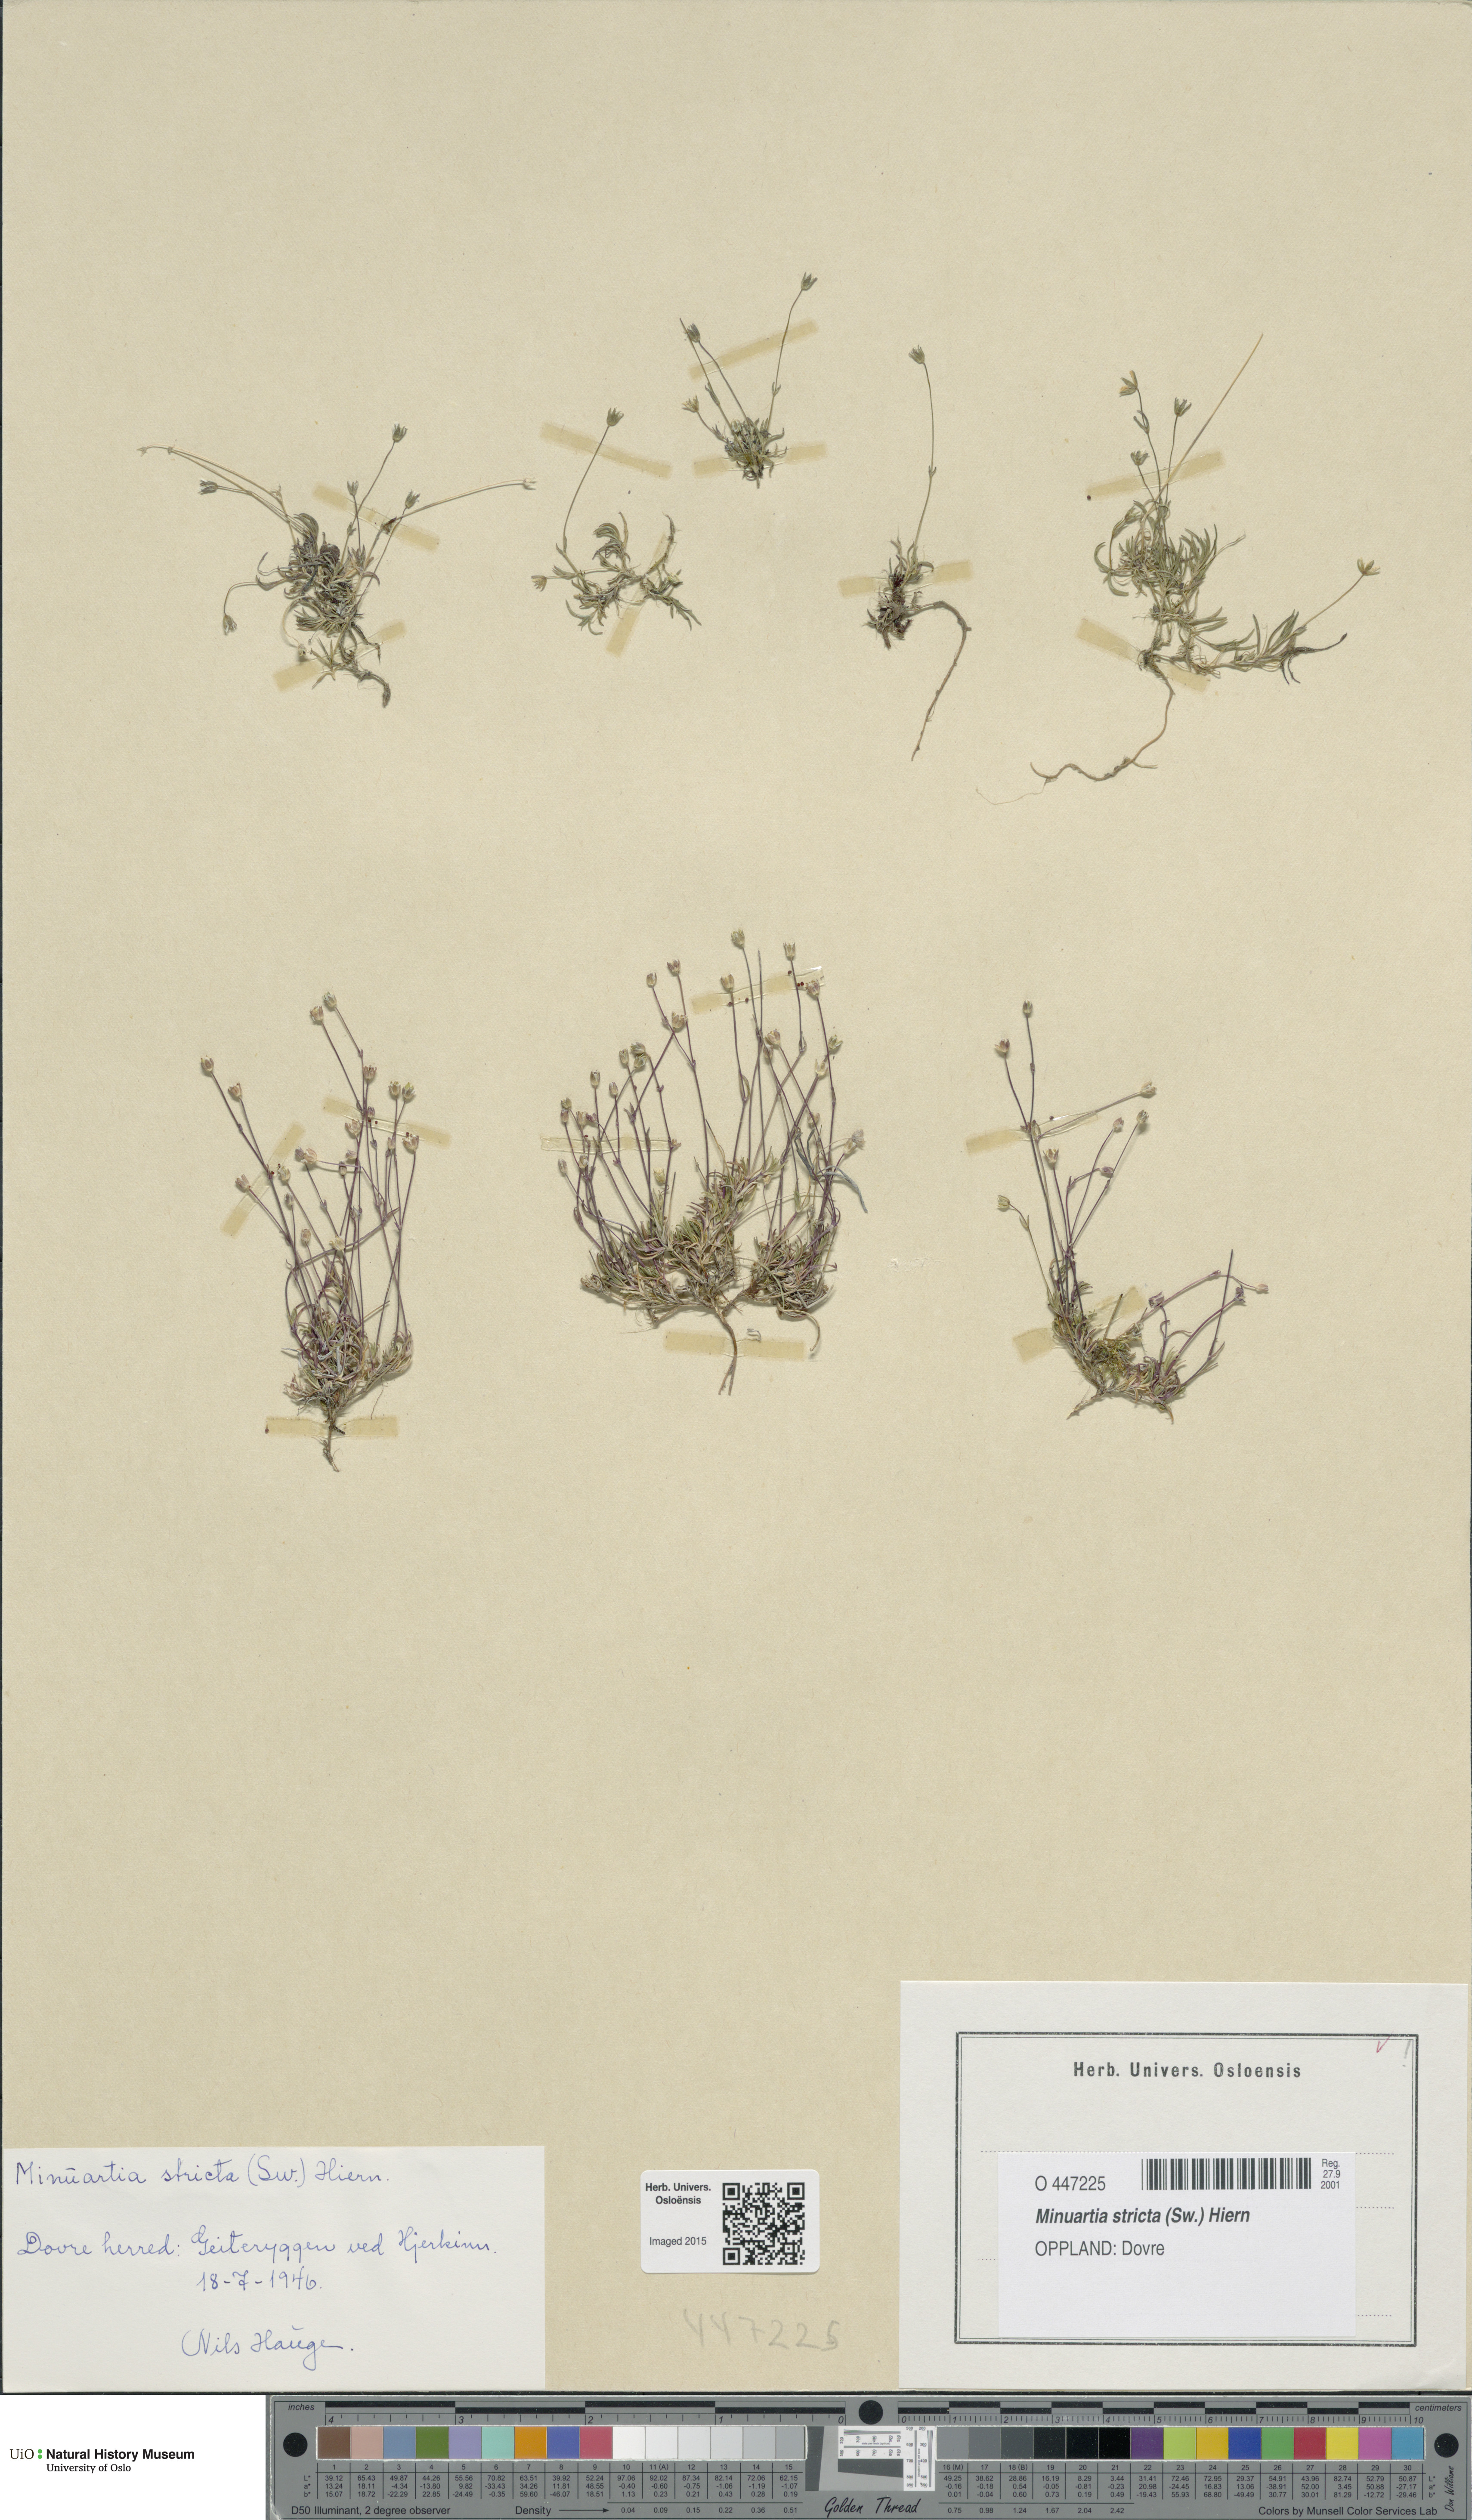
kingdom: Plantae
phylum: Tracheophyta
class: Magnoliopsida
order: Caryophyllales
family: Caryophyllaceae
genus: Sabulina
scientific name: Sabulina stricta
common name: Bog sandwort
